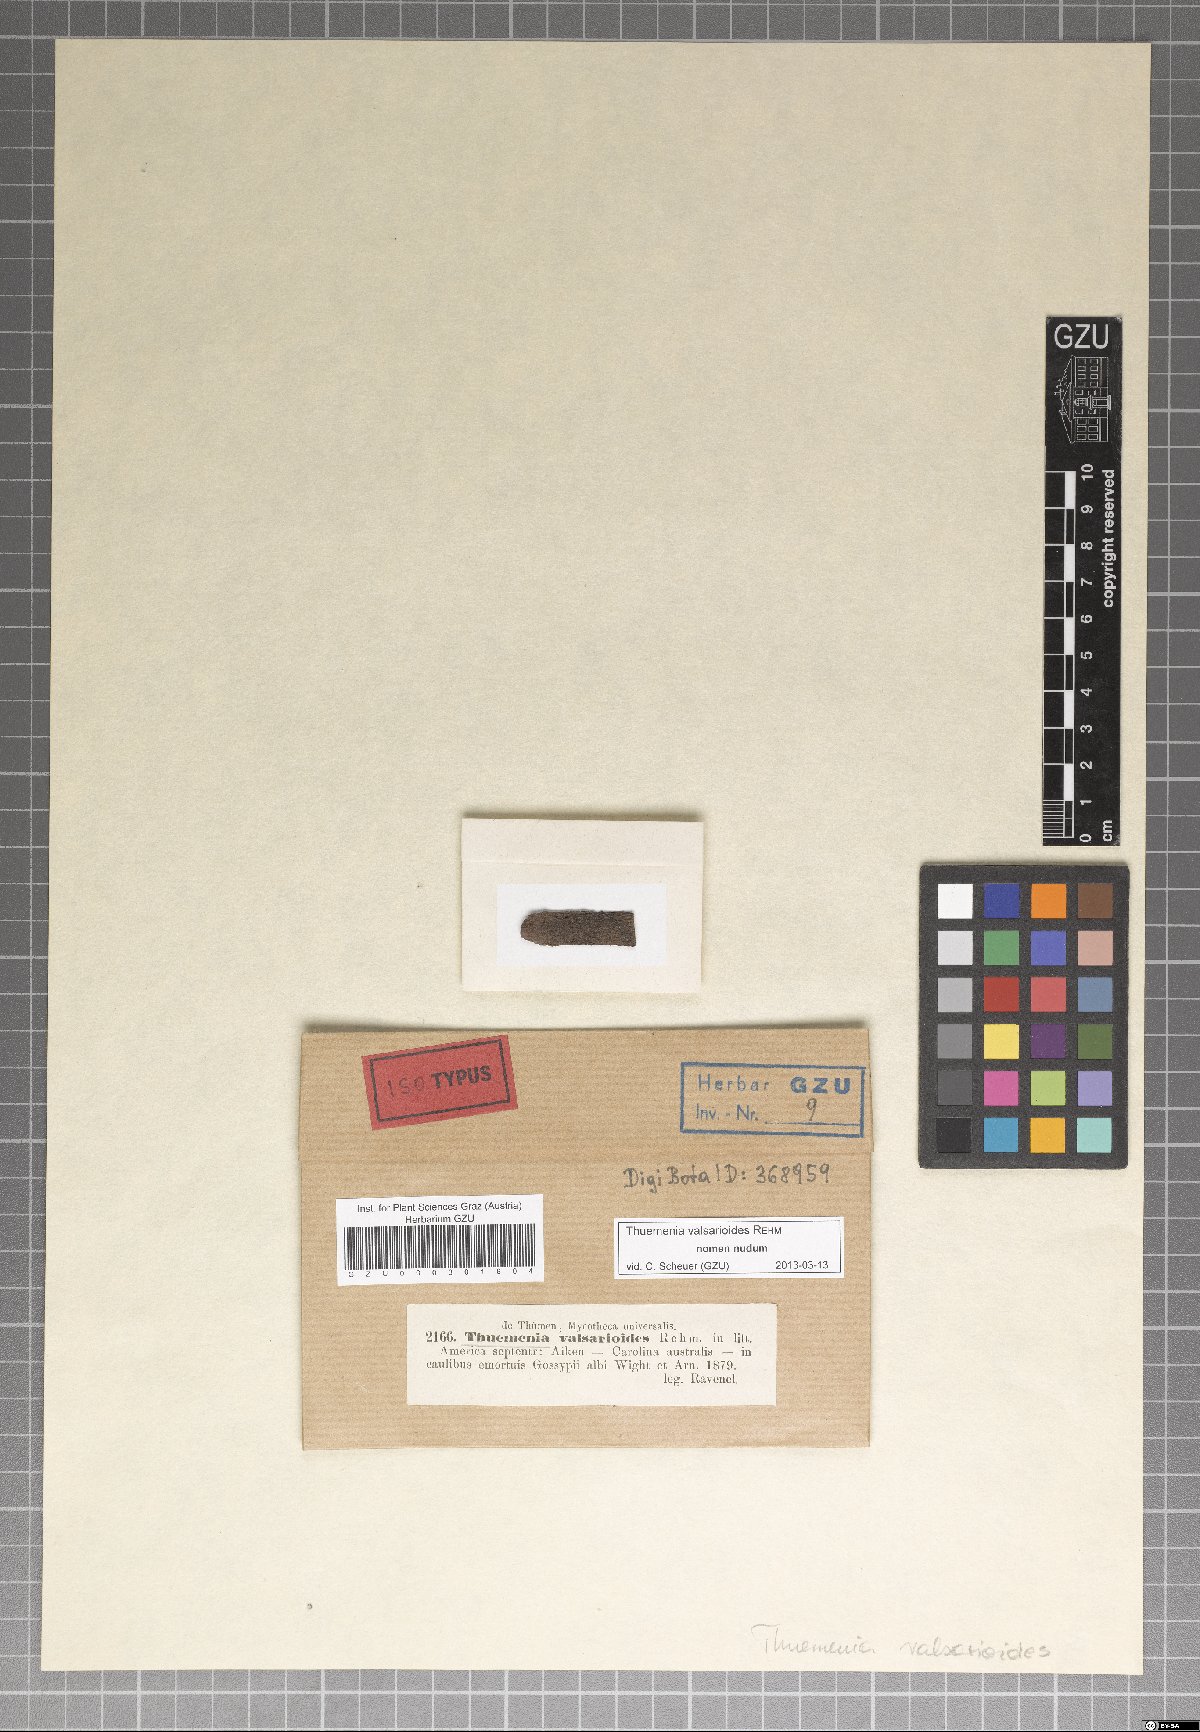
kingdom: Fungi
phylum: Ascomycota
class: Dothideomycetes
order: Botryosphaeriales
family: Botryosphaeriaceae
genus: Botryosphaeria
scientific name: Botryosphaeria
